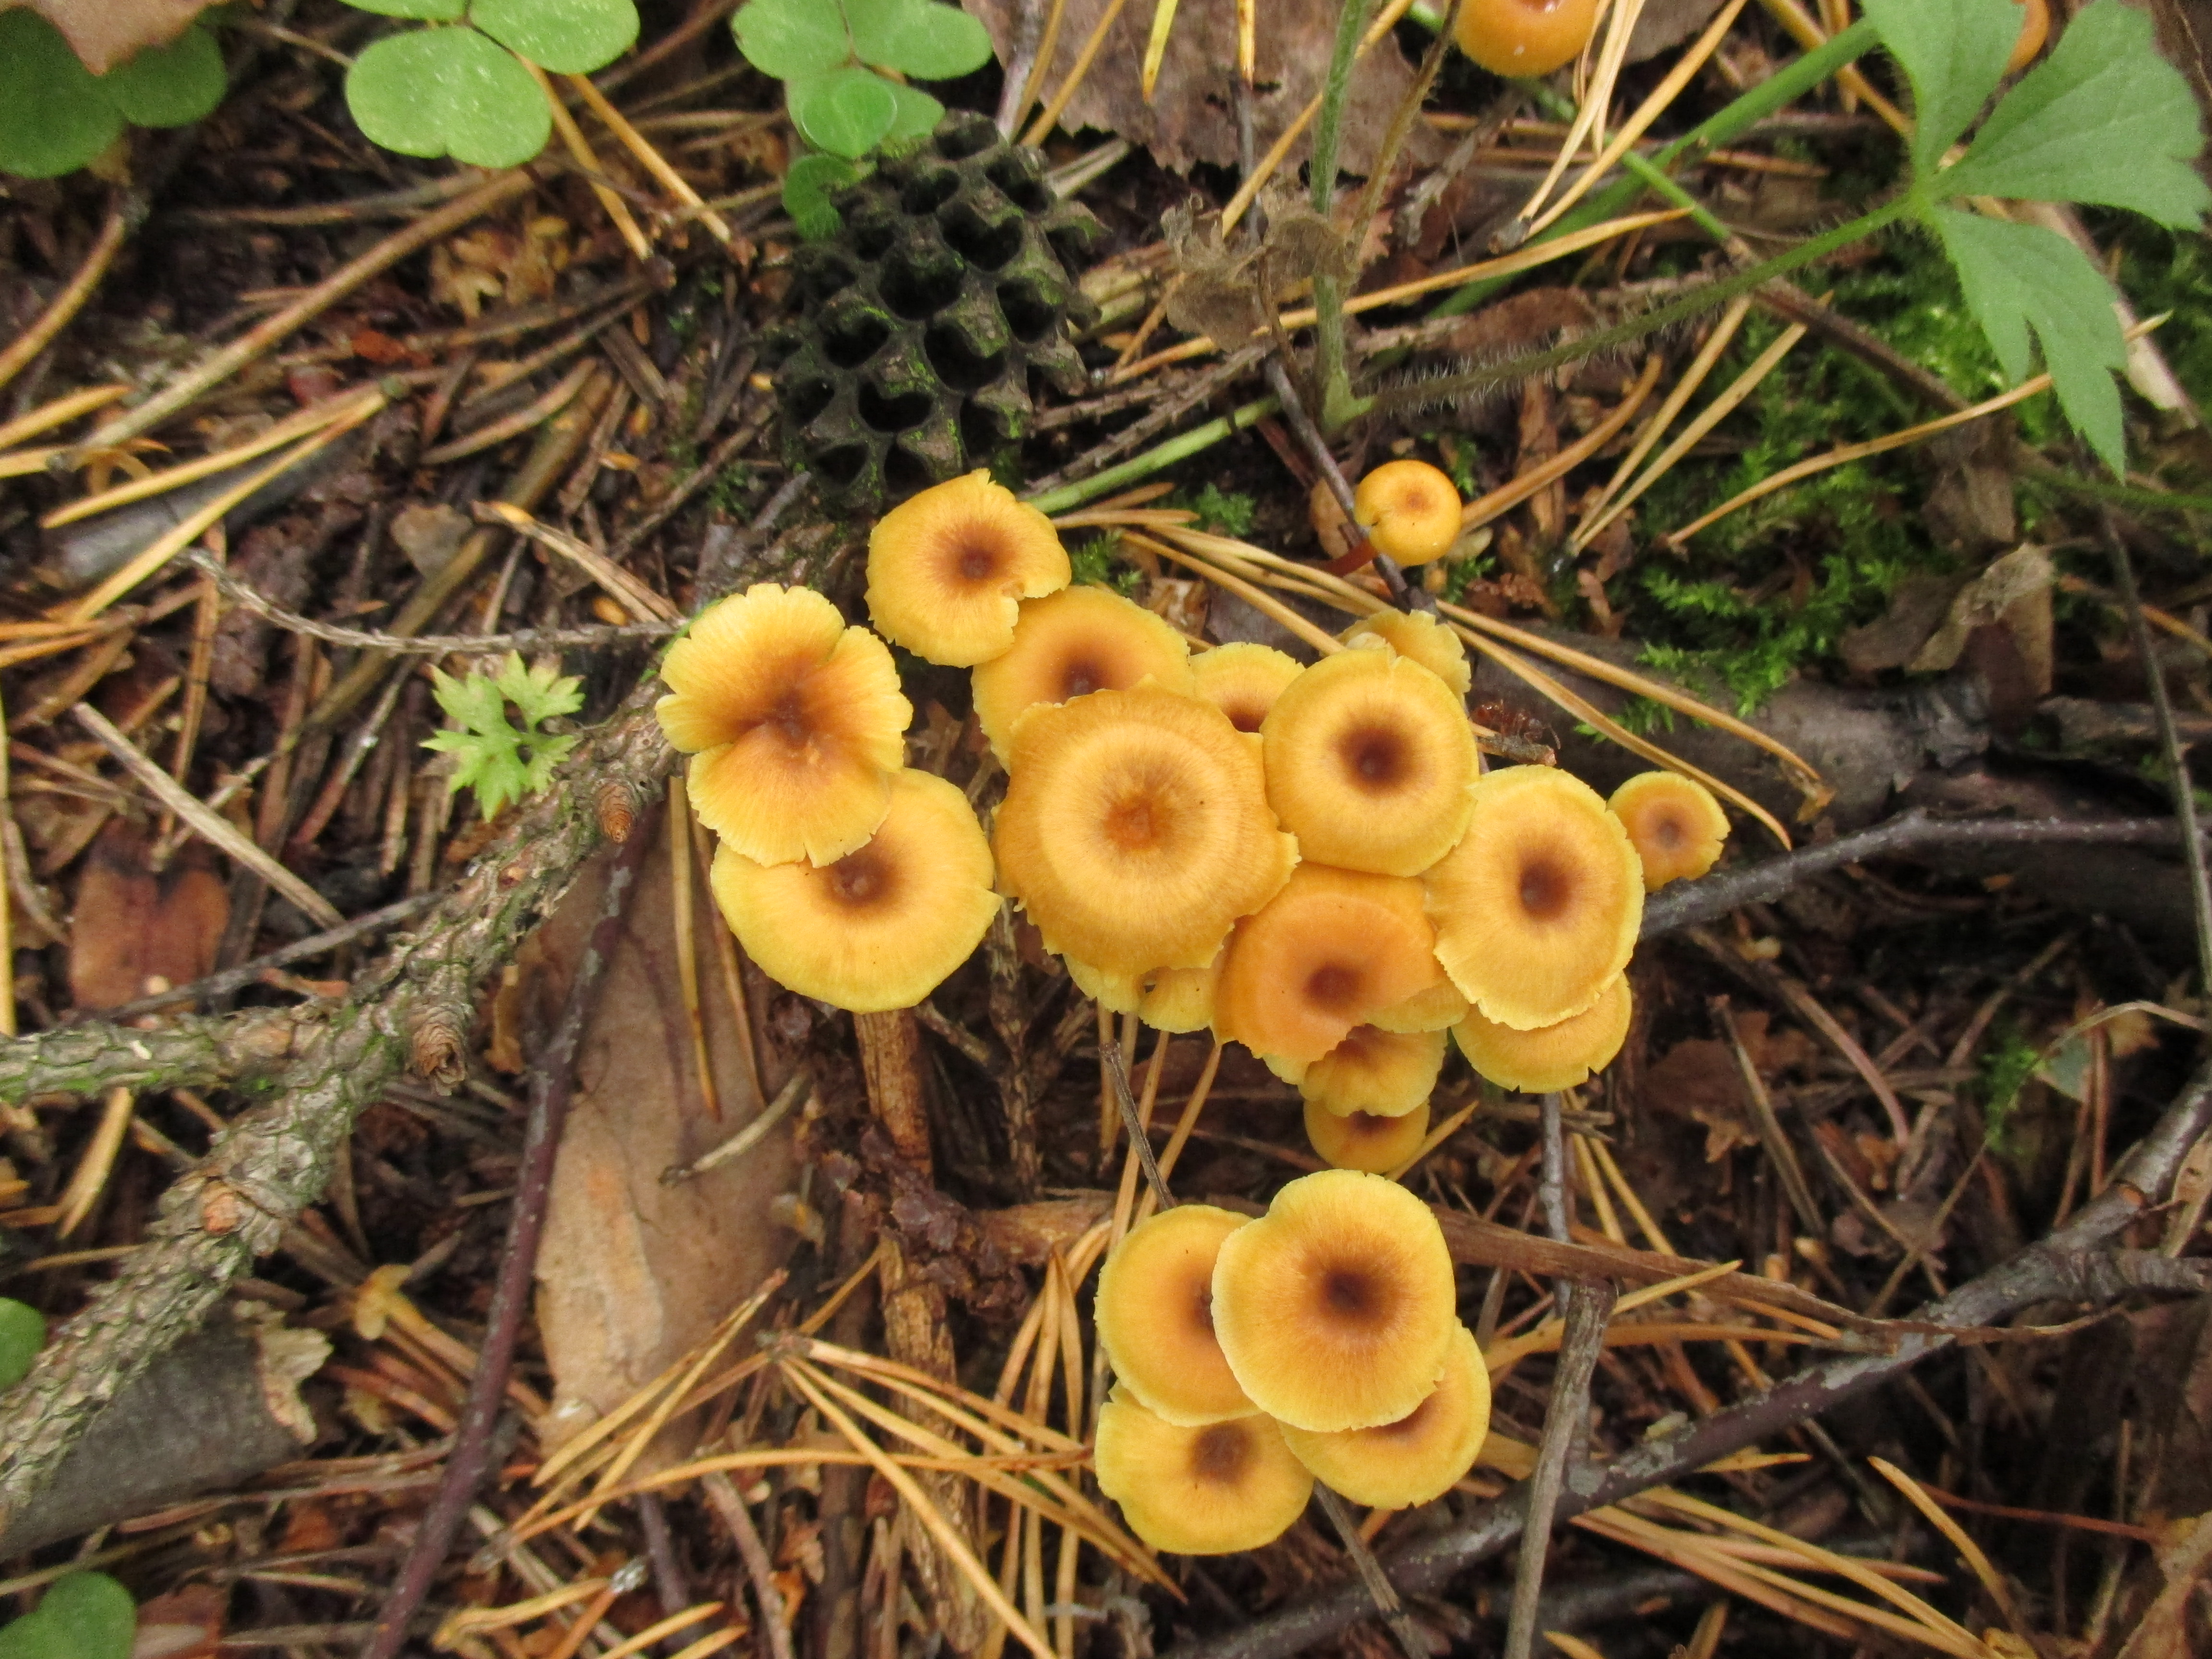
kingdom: Fungi
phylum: Basidiomycota
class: Agaricomycetes
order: Agaricales
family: Mycenaceae
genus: Xeromphalina
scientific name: Xeromphalina campanella
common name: Pinewood gingertail
